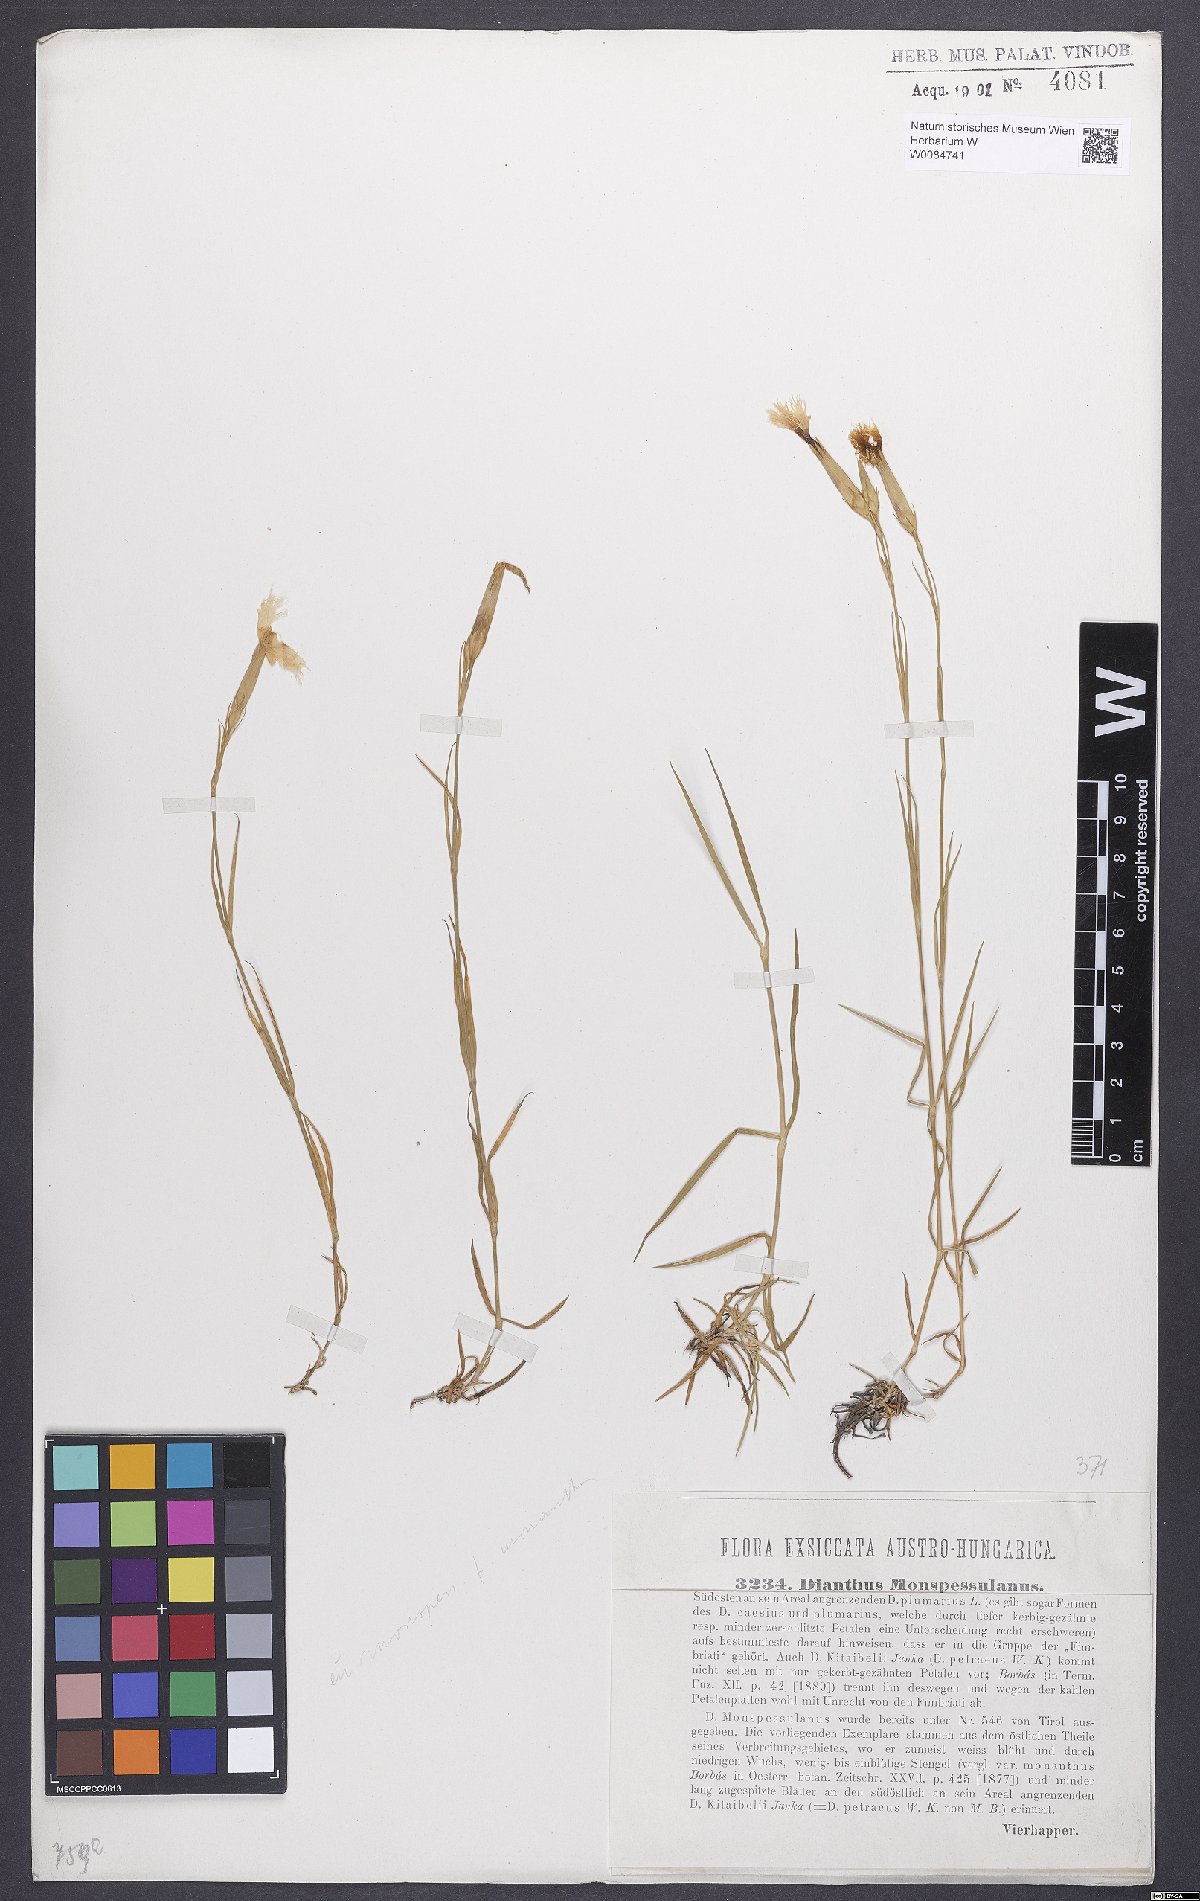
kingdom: Plantae
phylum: Tracheophyta
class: Magnoliopsida
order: Caryophyllales
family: Caryophyllaceae
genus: Dianthus
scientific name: Dianthus hyssopifolius
